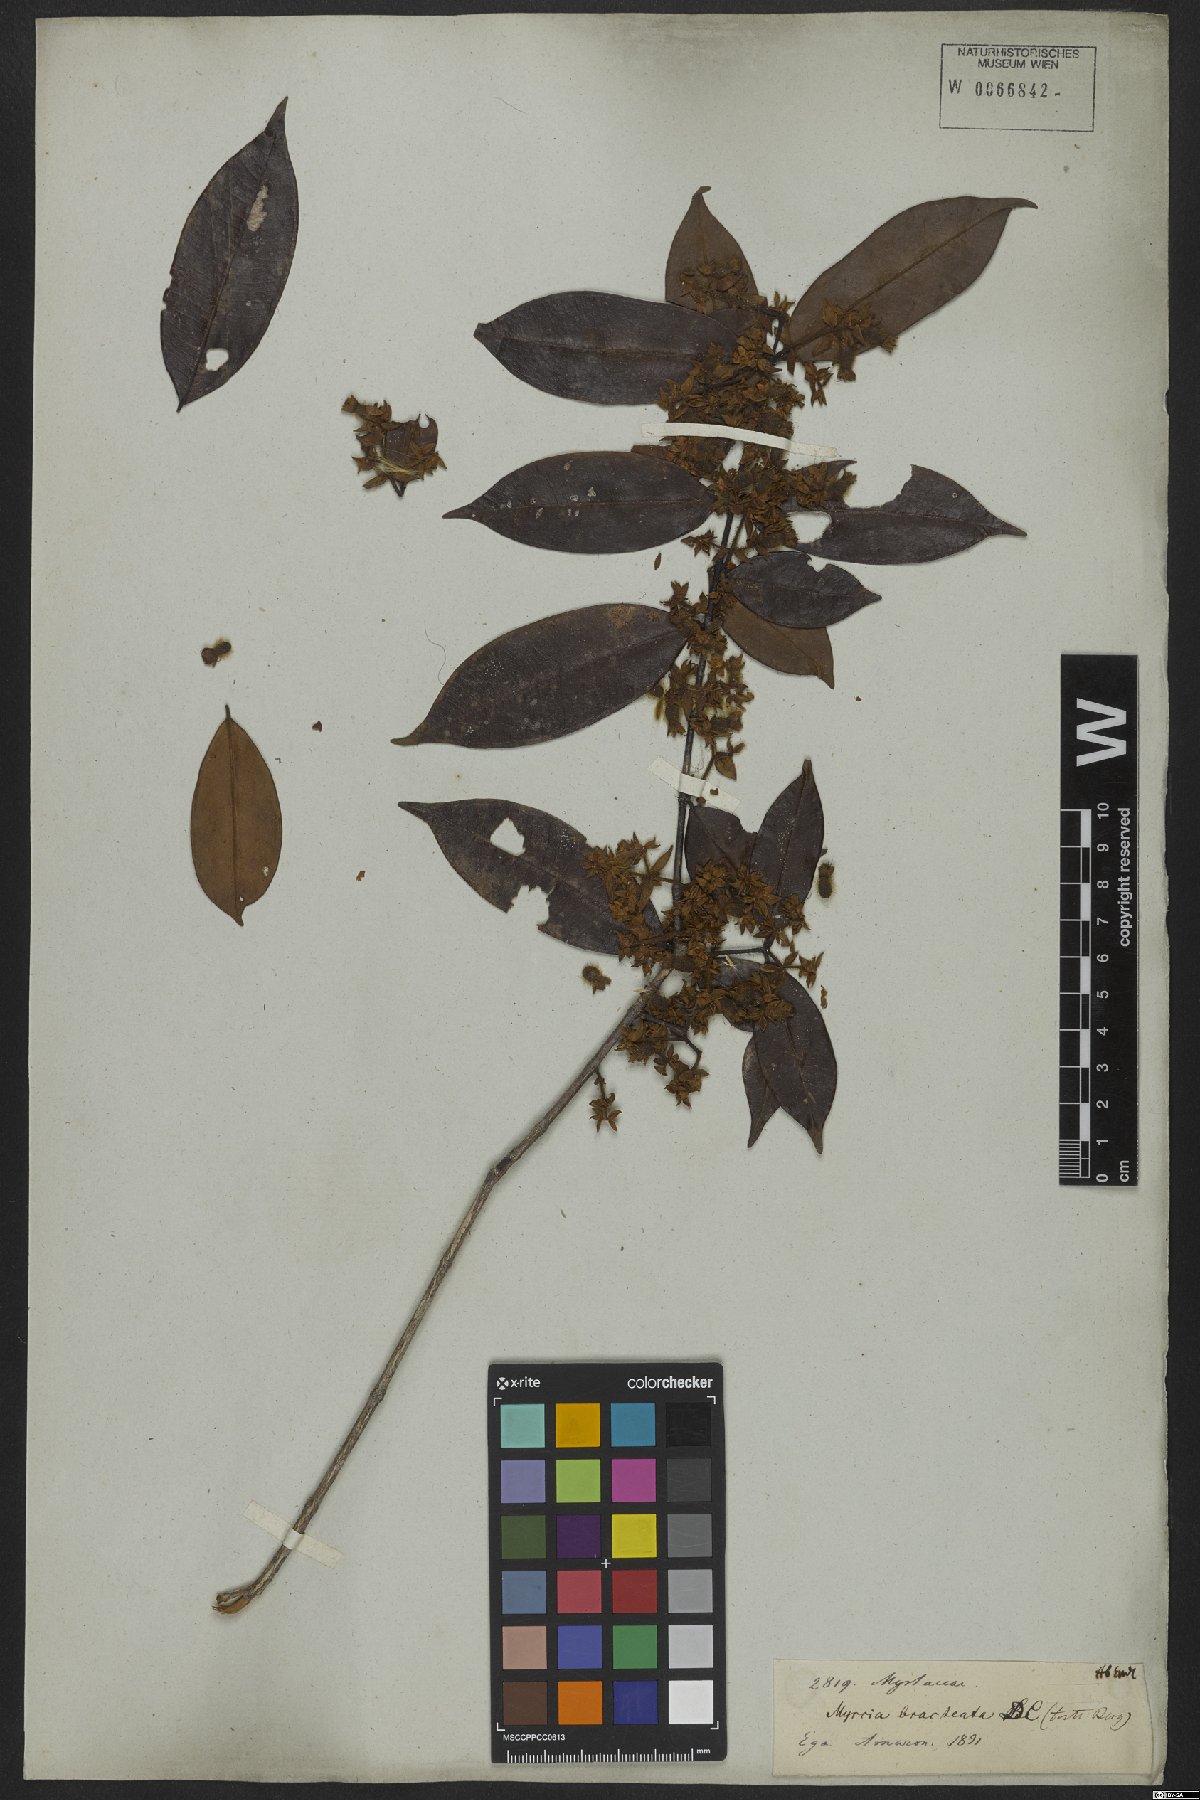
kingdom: Plantae
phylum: Tracheophyta
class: Magnoliopsida
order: Myrtales
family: Myrtaceae
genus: Myrcia
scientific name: Myrcia bracteata
